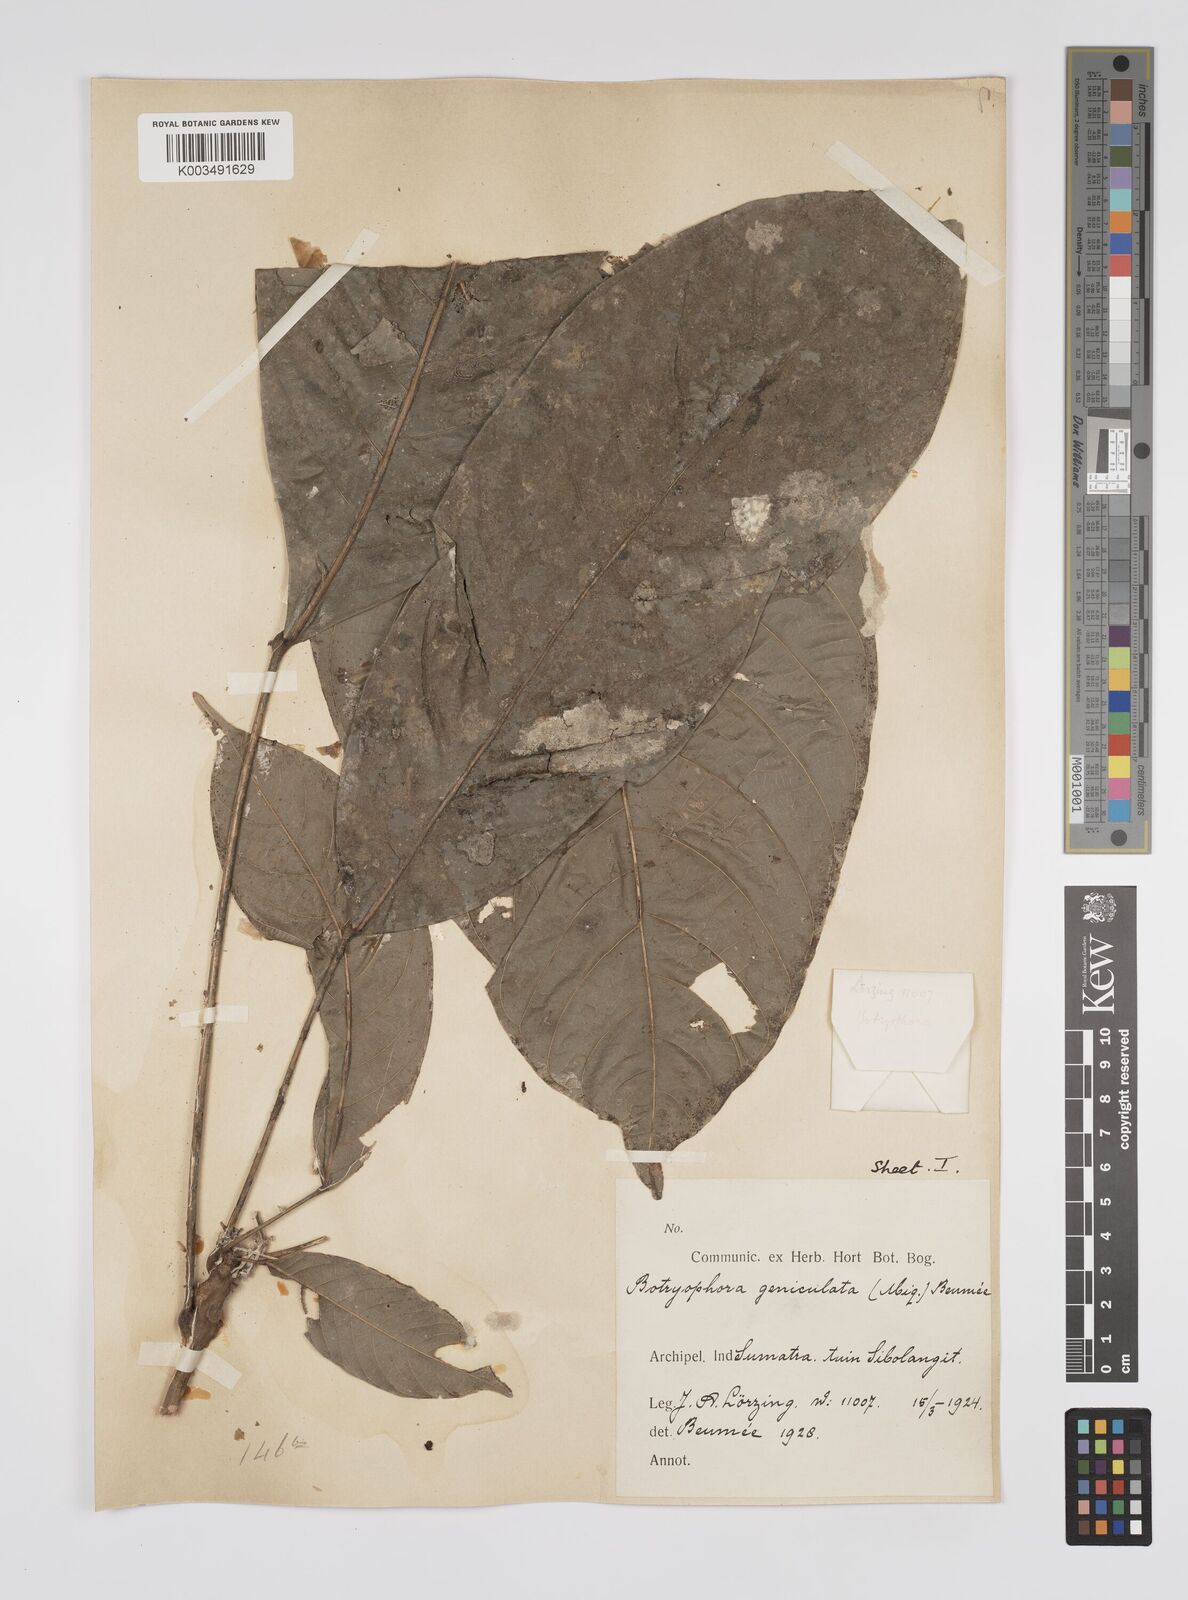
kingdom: Plantae
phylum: Tracheophyta
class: Magnoliopsida
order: Malpighiales
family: Euphorbiaceae
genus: Botryophora
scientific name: Botryophora geniculata
